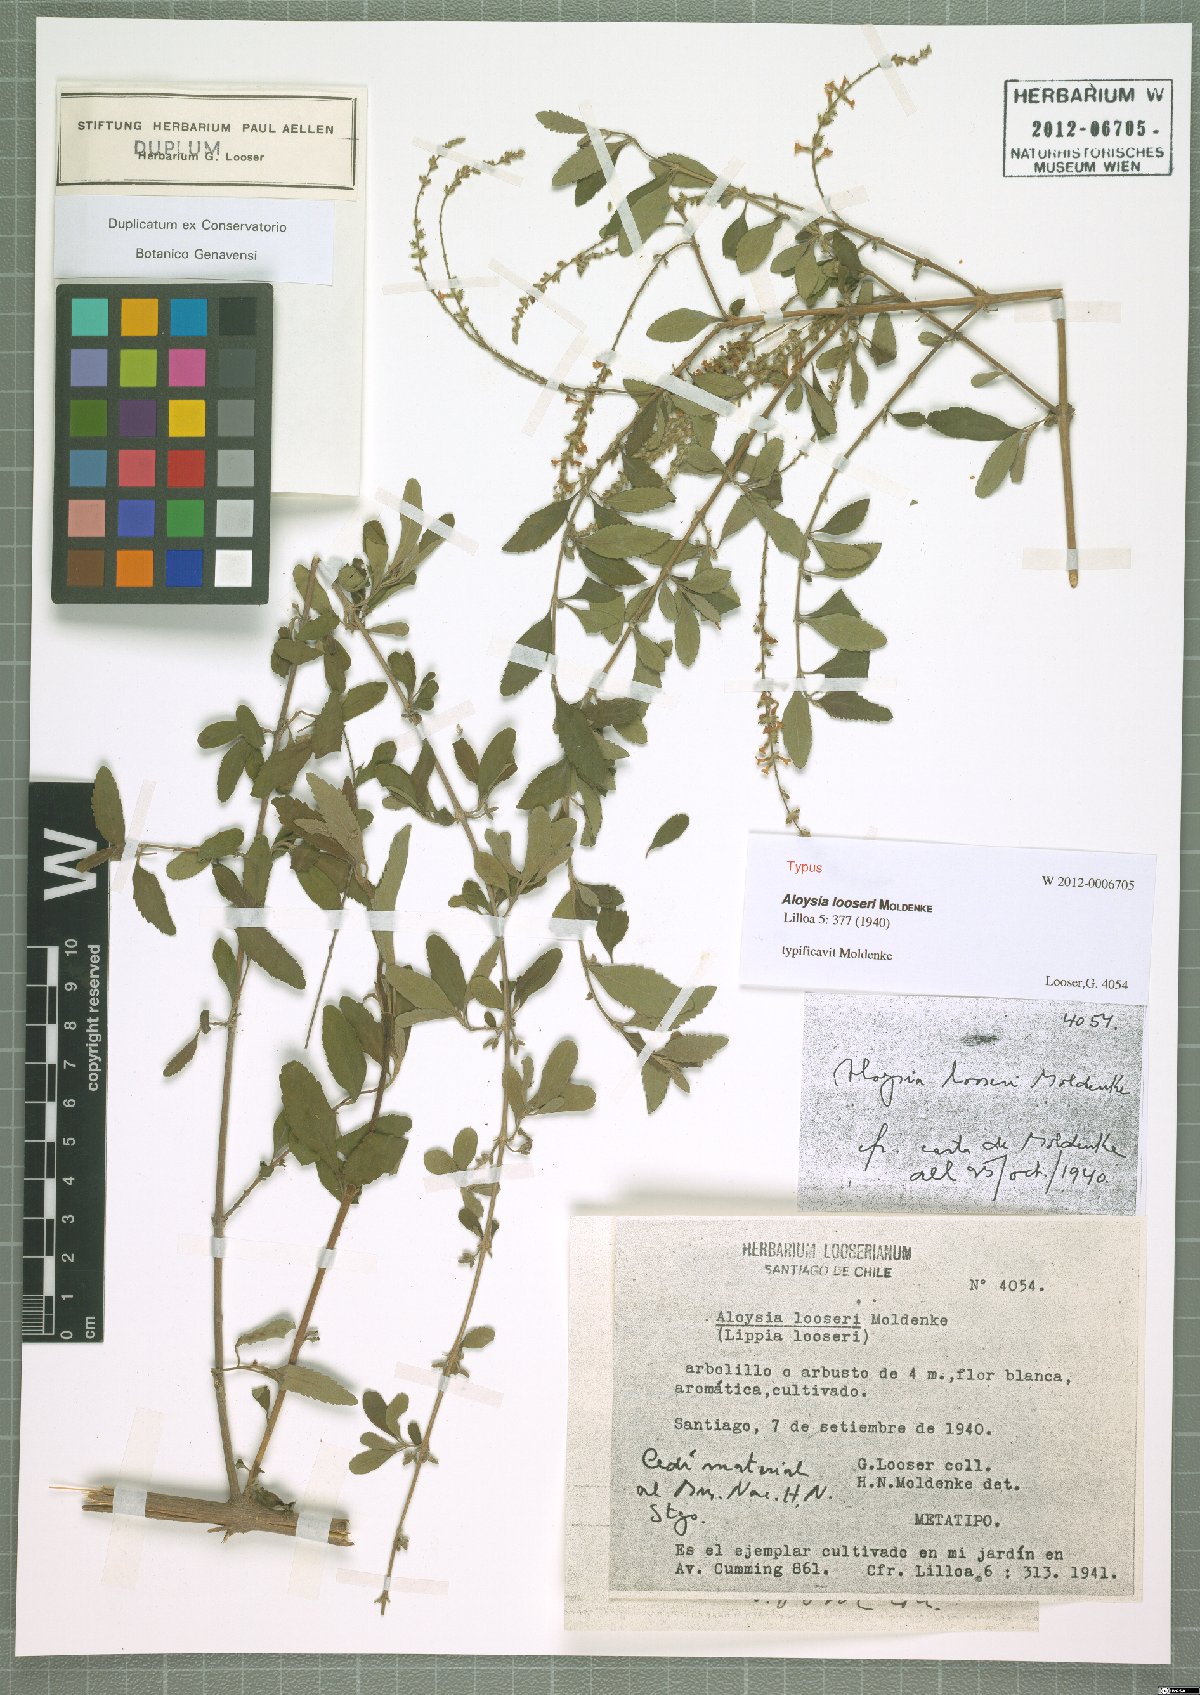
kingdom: Plantae
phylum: Tracheophyta
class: Magnoliopsida
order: Lamiales
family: Verbenaceae
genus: Aloysia
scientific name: Aloysia schulziana
